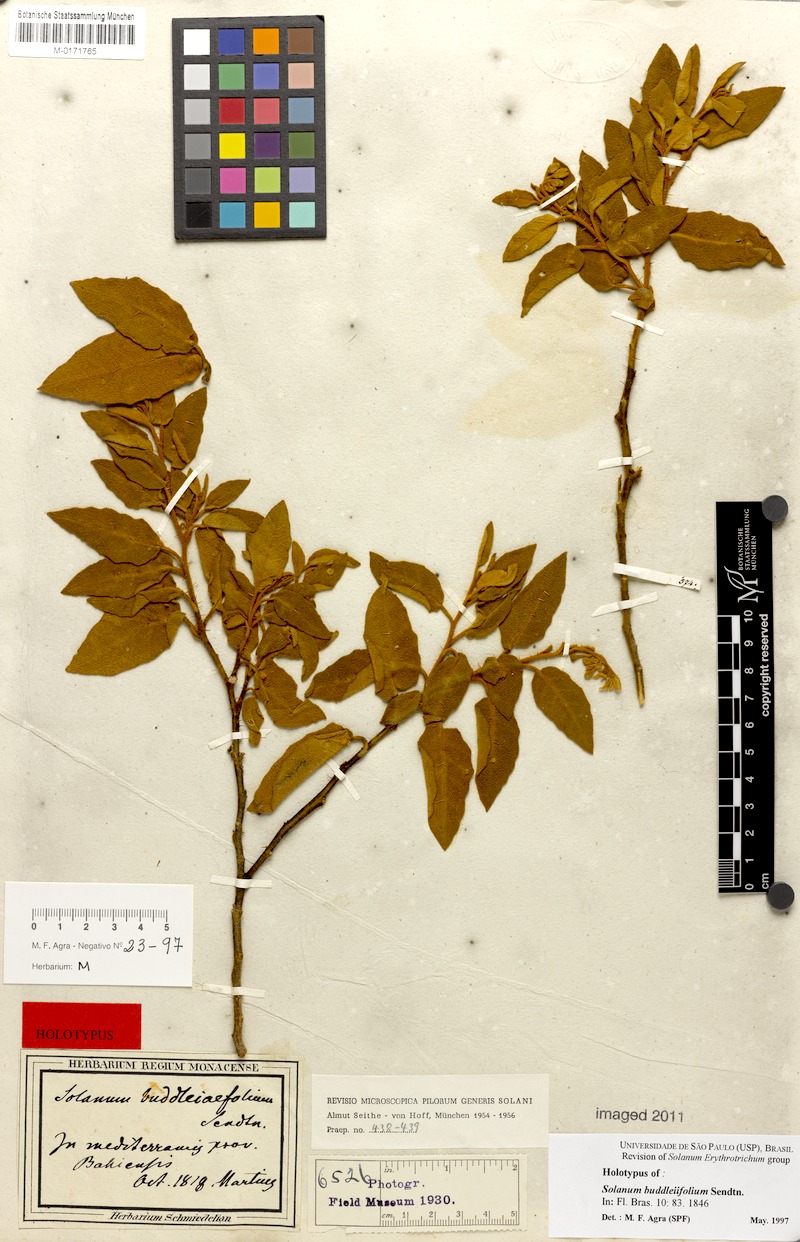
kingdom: Plantae
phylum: Tracheophyta
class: Magnoliopsida
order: Solanales
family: Solanaceae
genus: Solanum
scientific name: Solanum buddlejifolium
